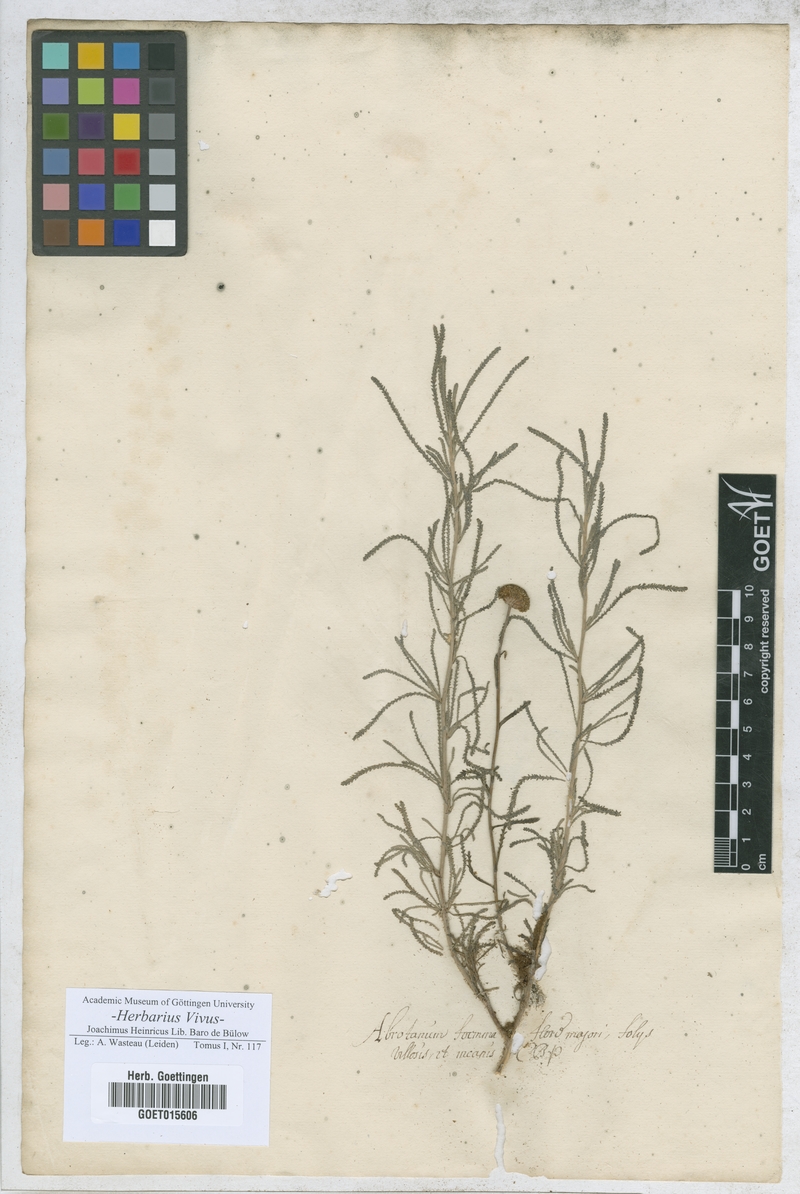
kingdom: Plantae
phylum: Tracheophyta
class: Magnoliopsida
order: Asterales
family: Asteraceae
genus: Santolina
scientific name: Santolina rosmarinifolia
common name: Holy-flax
